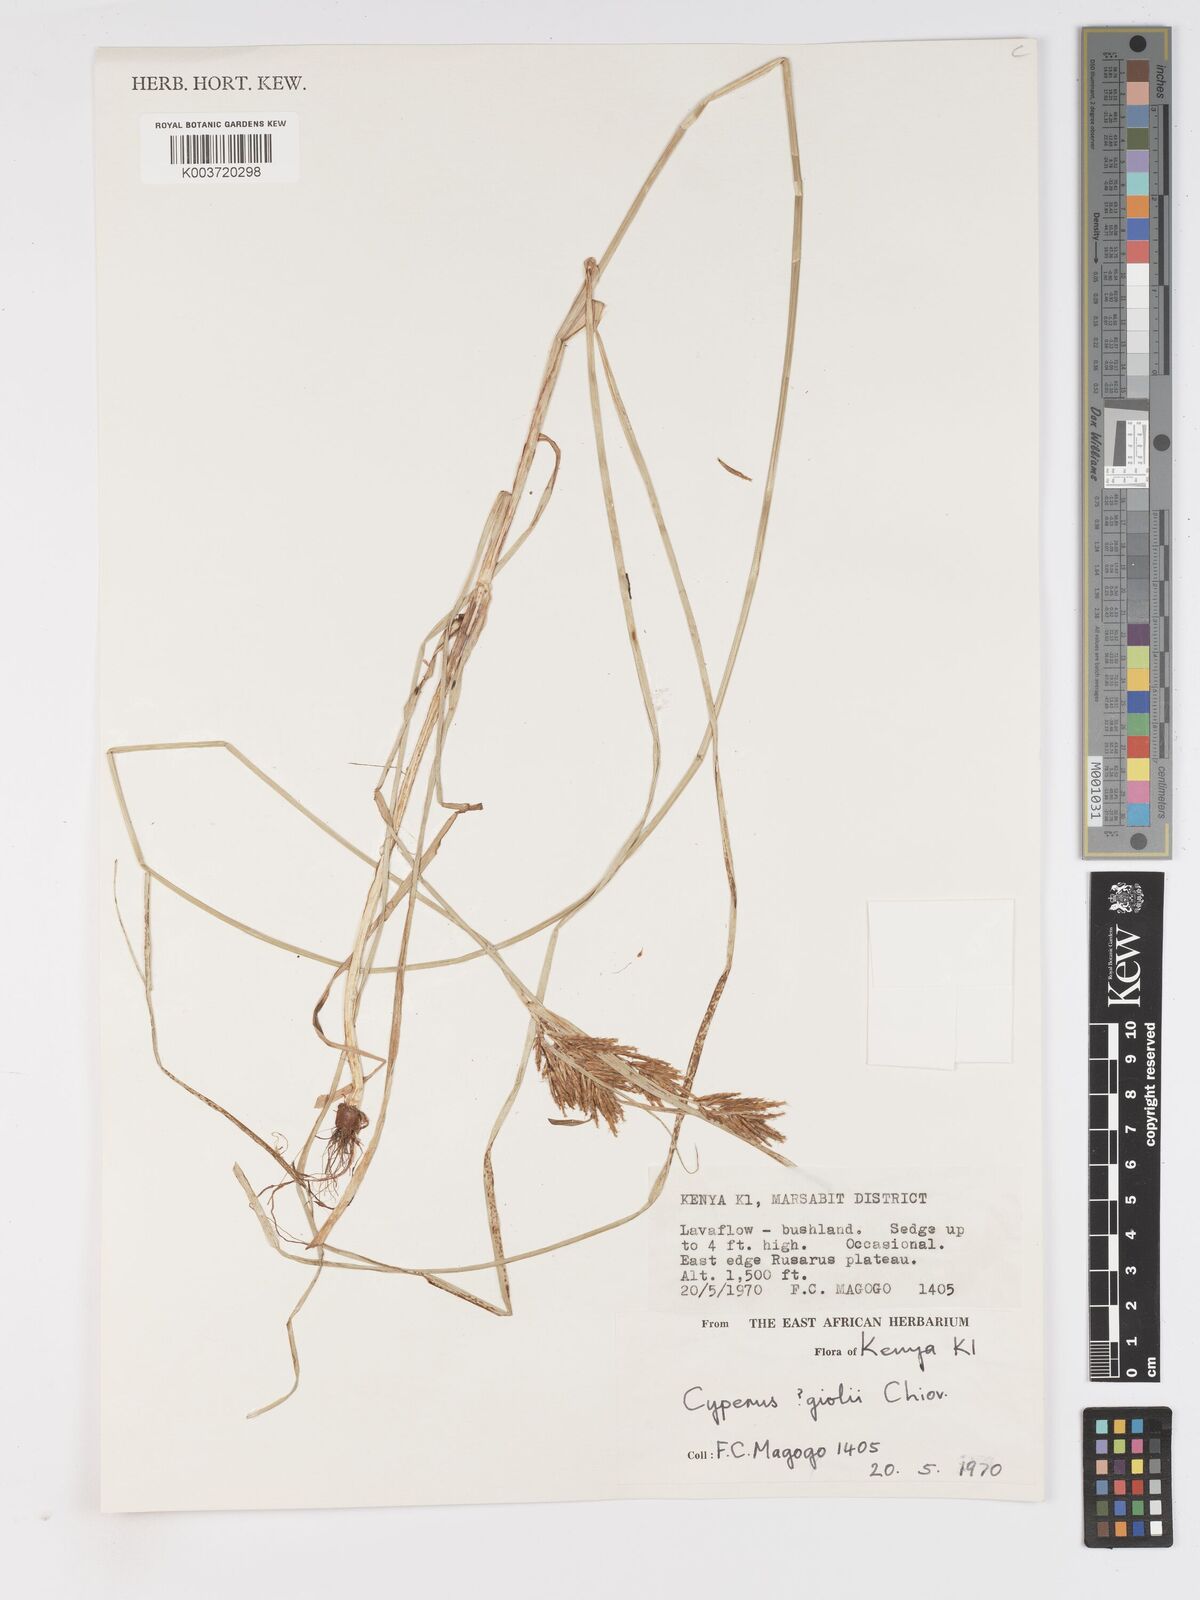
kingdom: Plantae
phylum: Tracheophyta
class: Liliopsida
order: Poales
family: Cyperaceae
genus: Cyperus
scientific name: Cyperus
